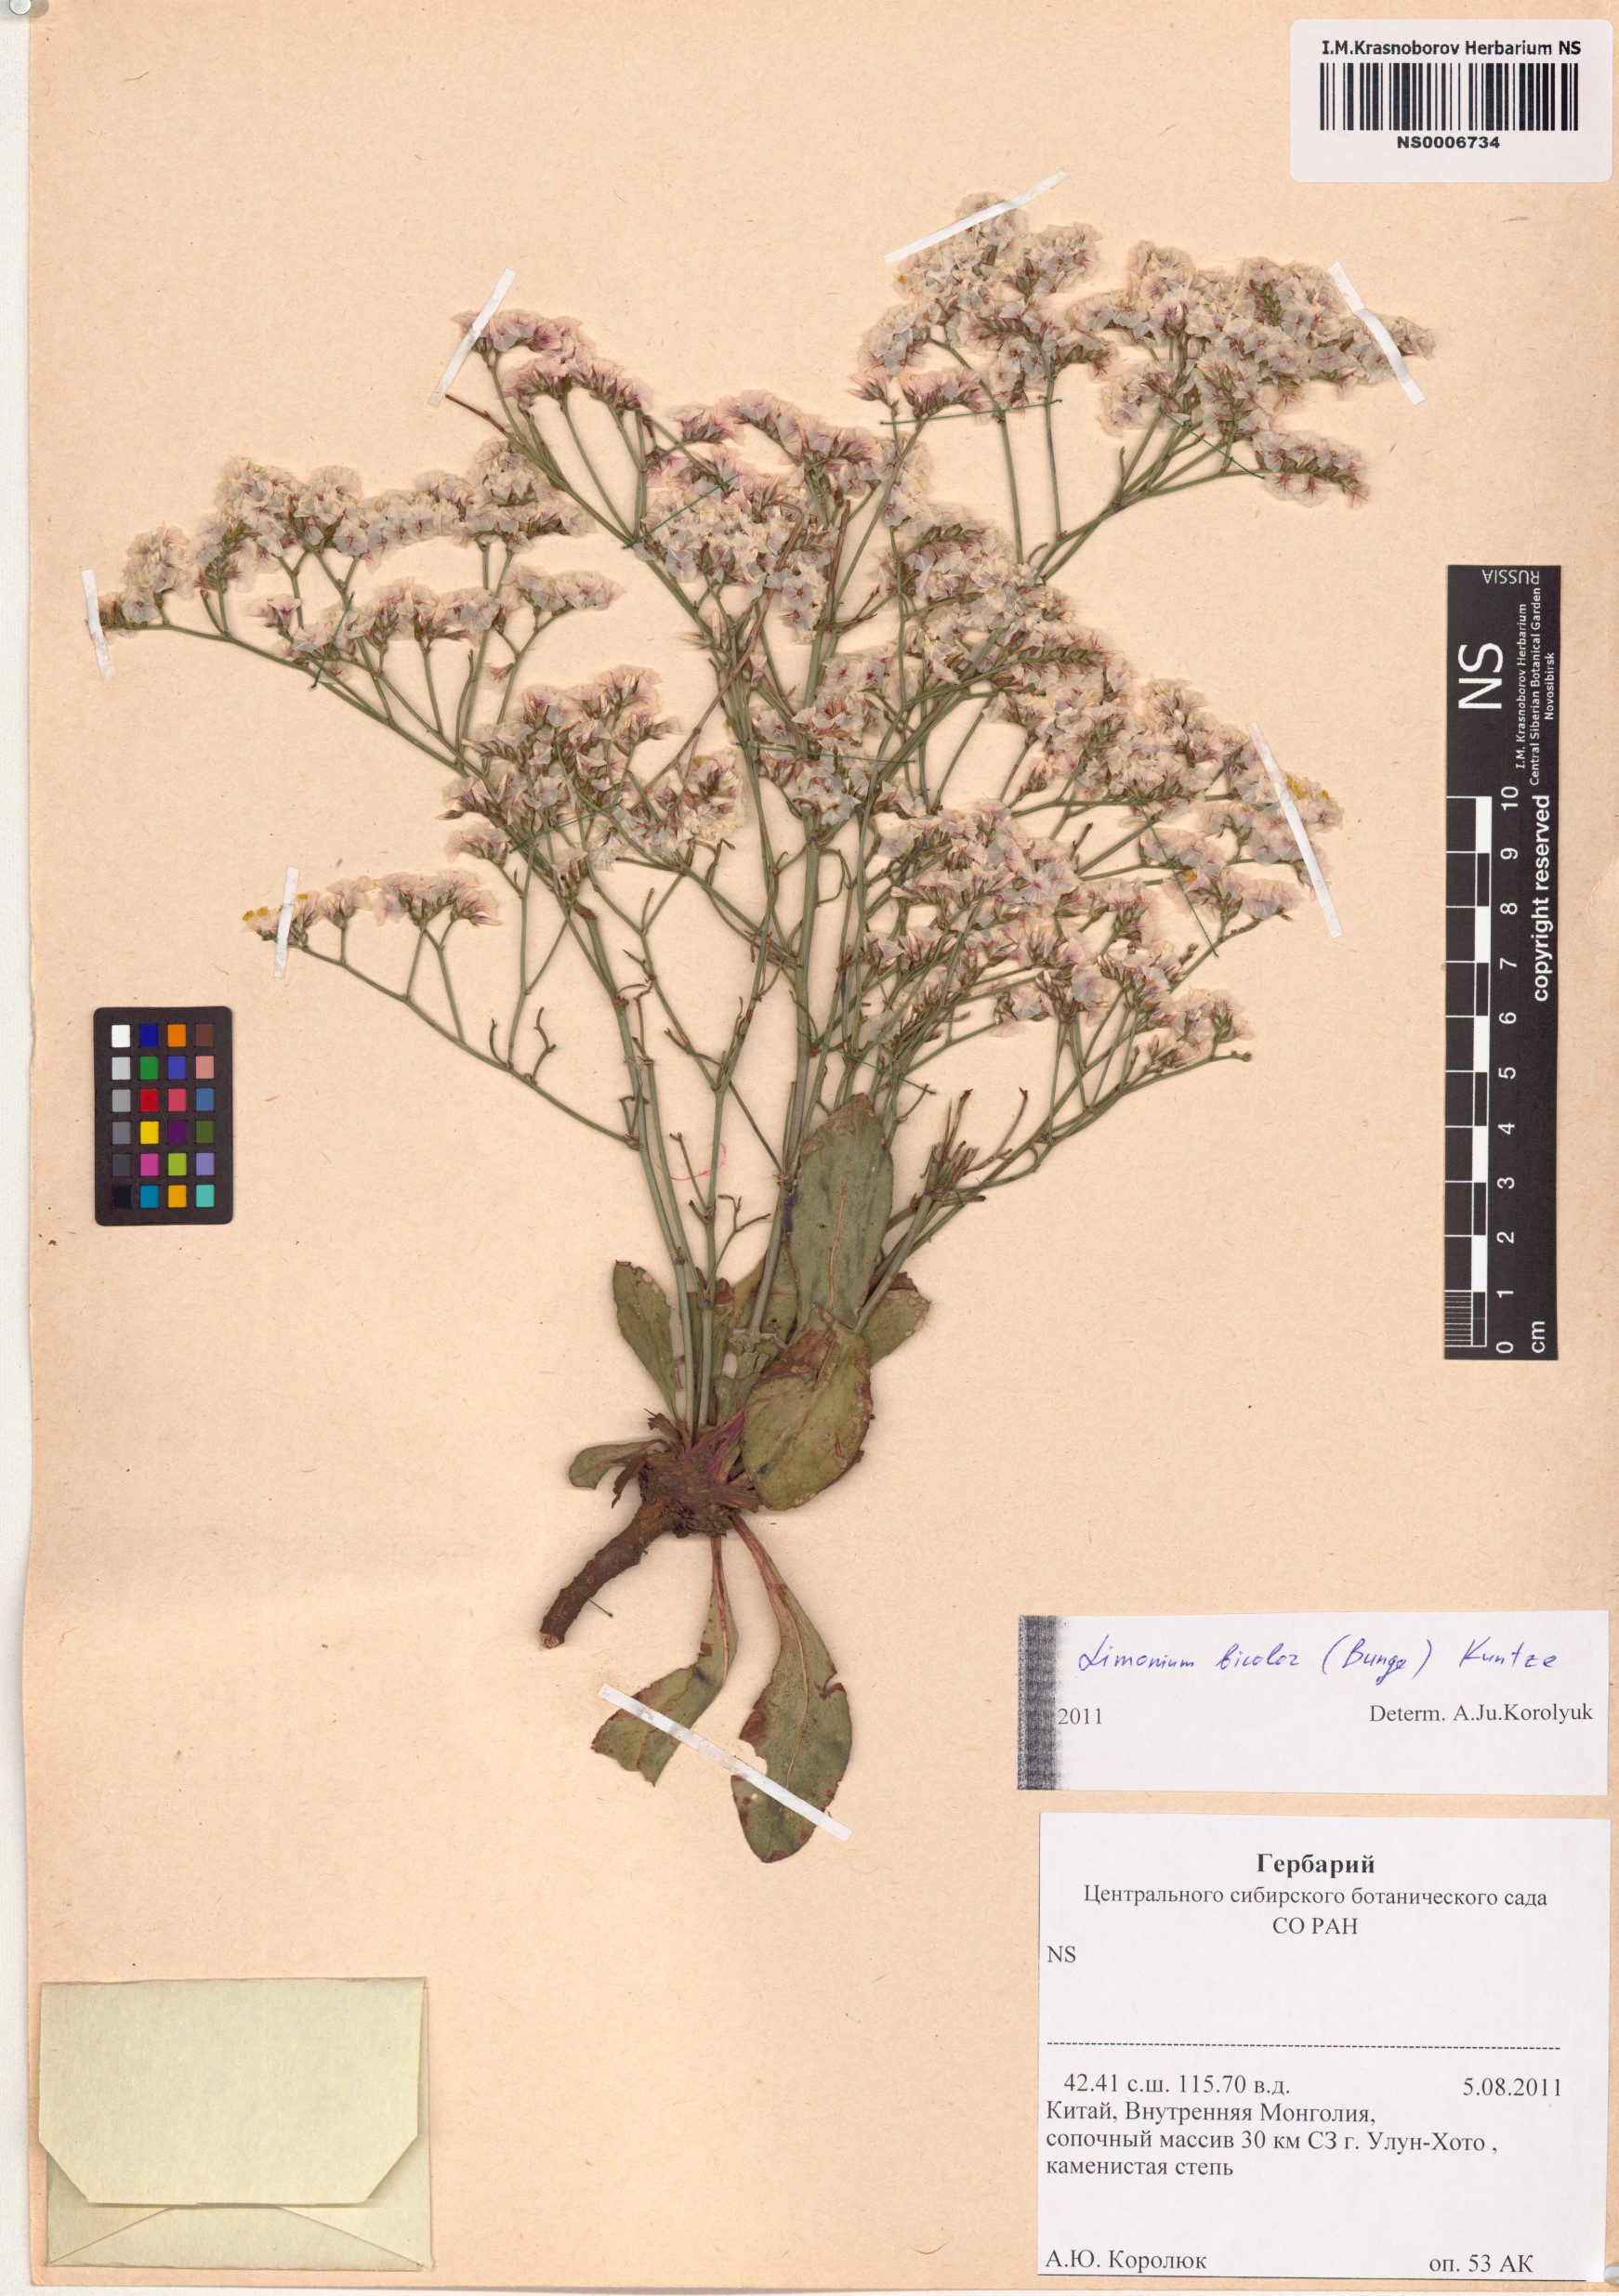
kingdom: Plantae
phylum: Tracheophyta
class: Magnoliopsida
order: Caryophyllales
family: Plumbaginaceae
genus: Limonium
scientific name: Limonium bicolor
